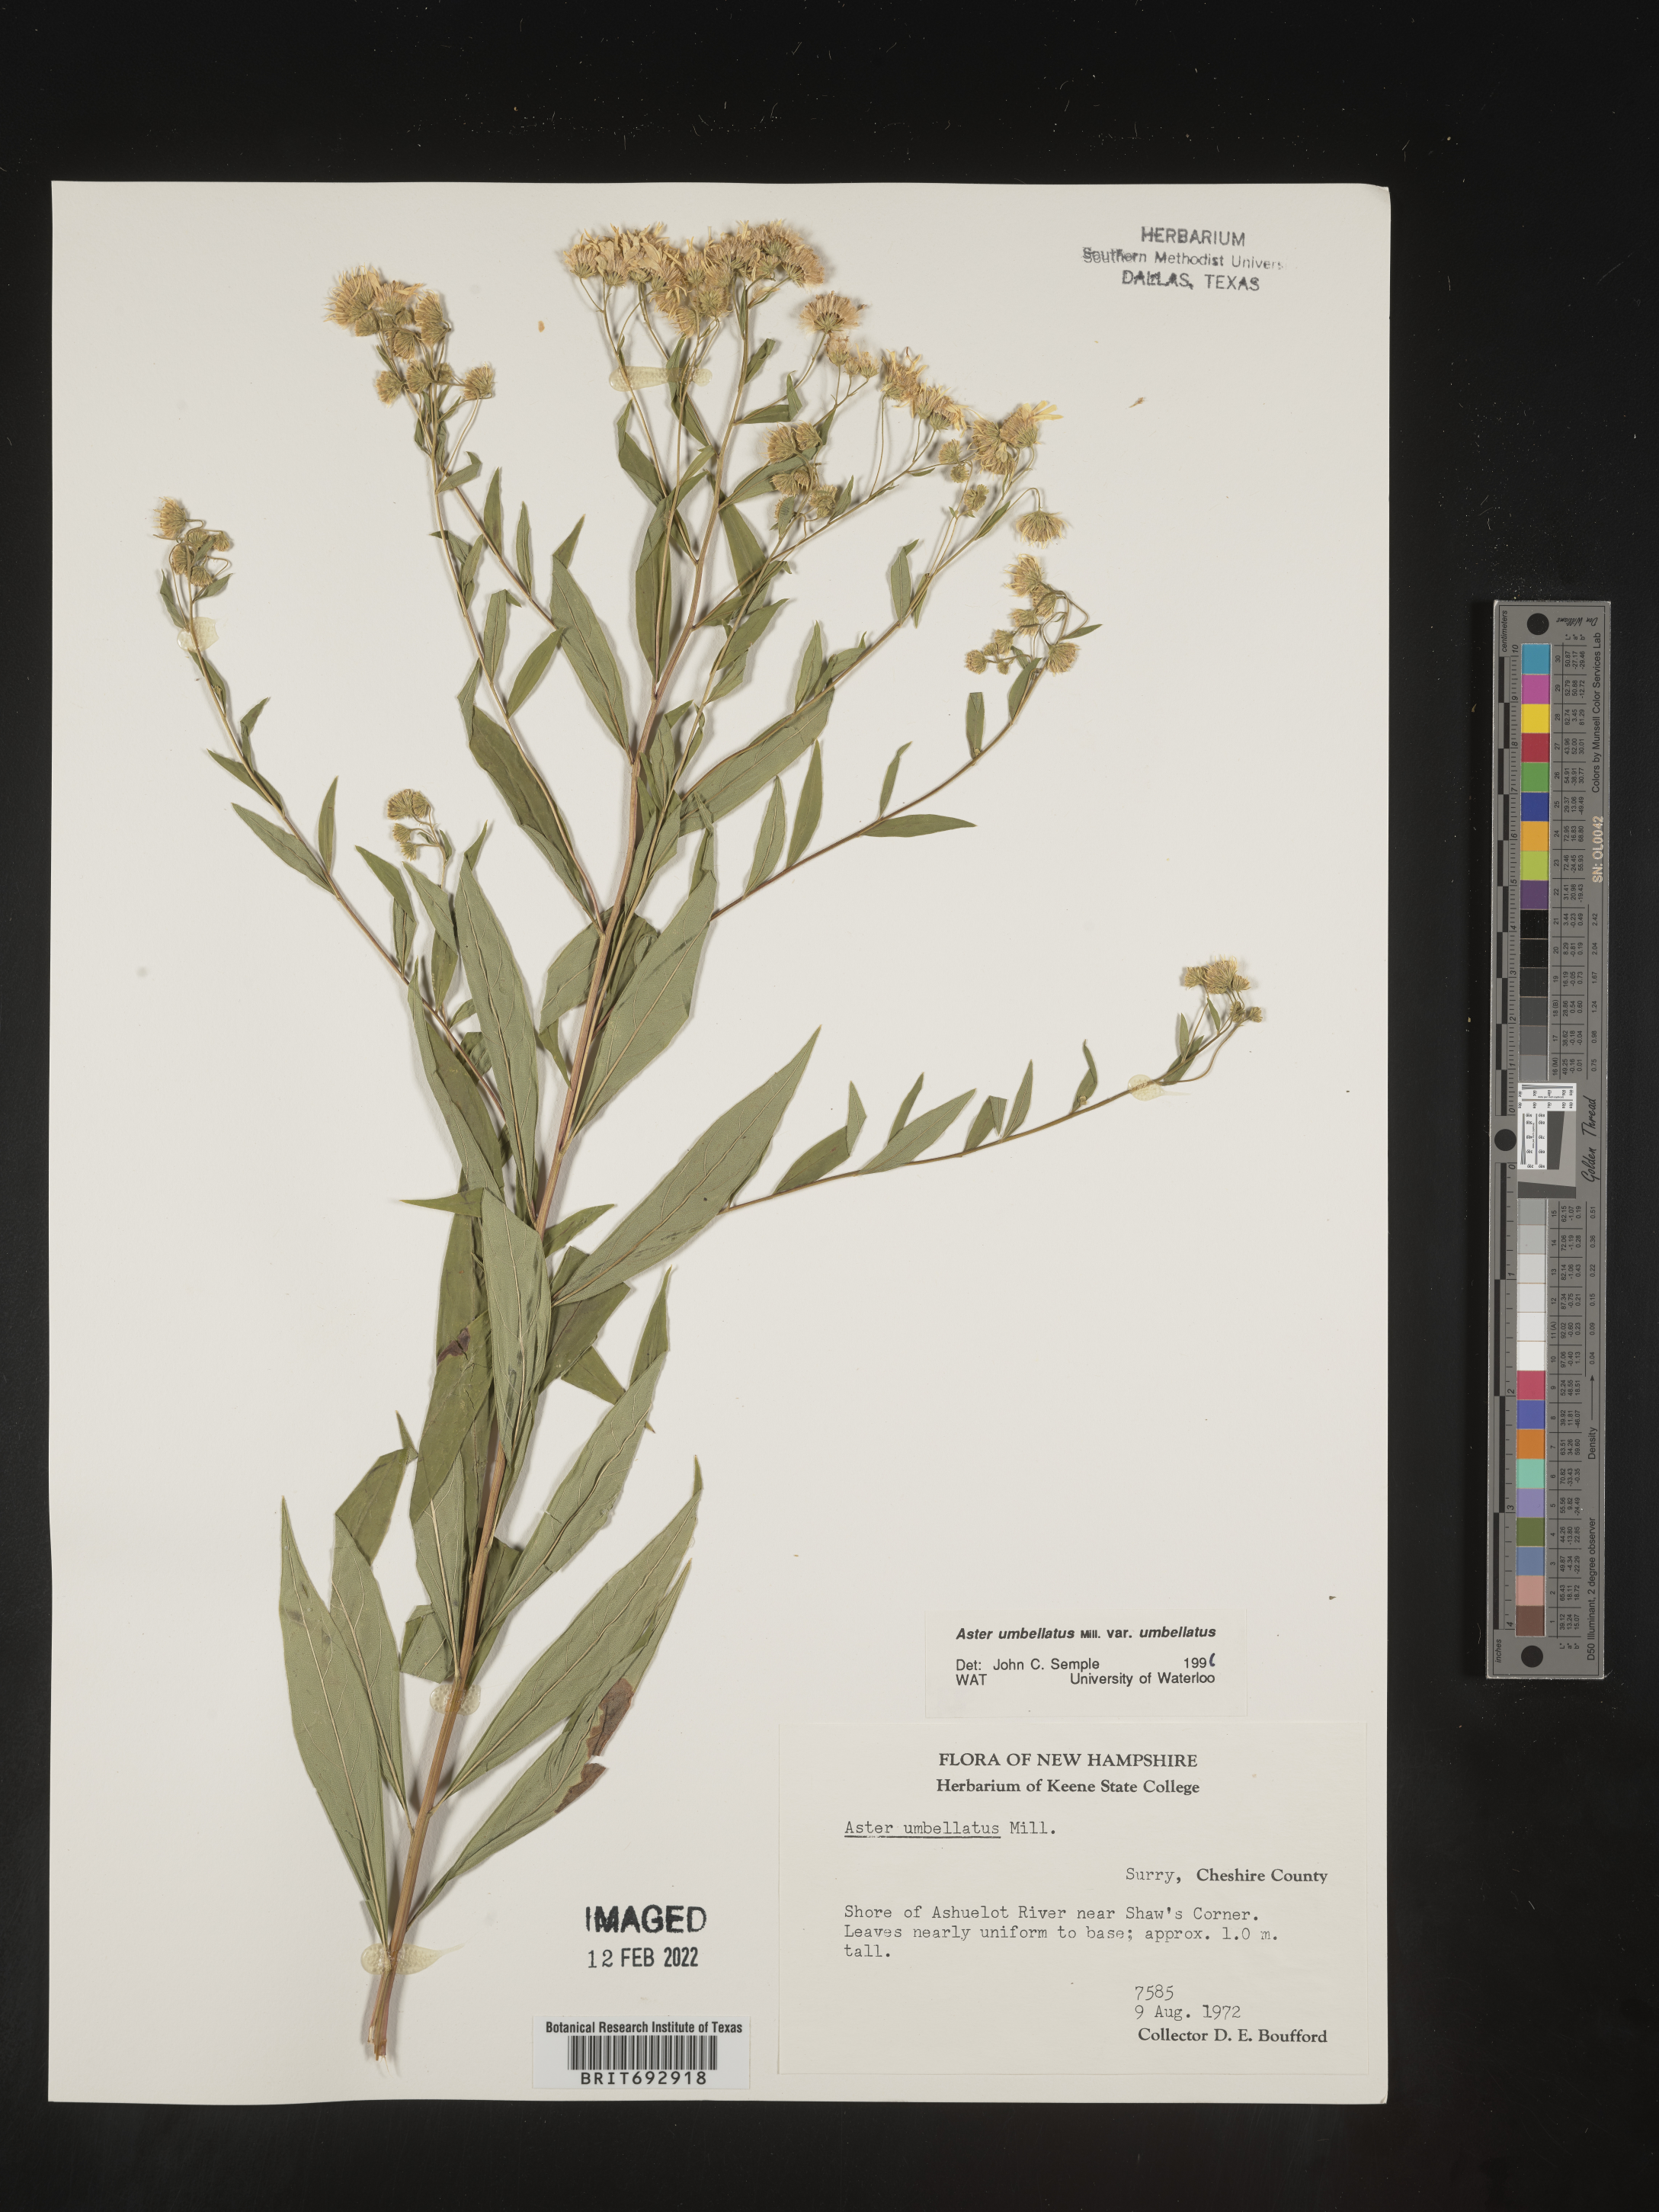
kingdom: Plantae
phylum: Tracheophyta
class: Magnoliopsida
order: Asterales
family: Asteraceae
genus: Doellingeria
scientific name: Doellingeria umbellata
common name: Flat-top white aster
